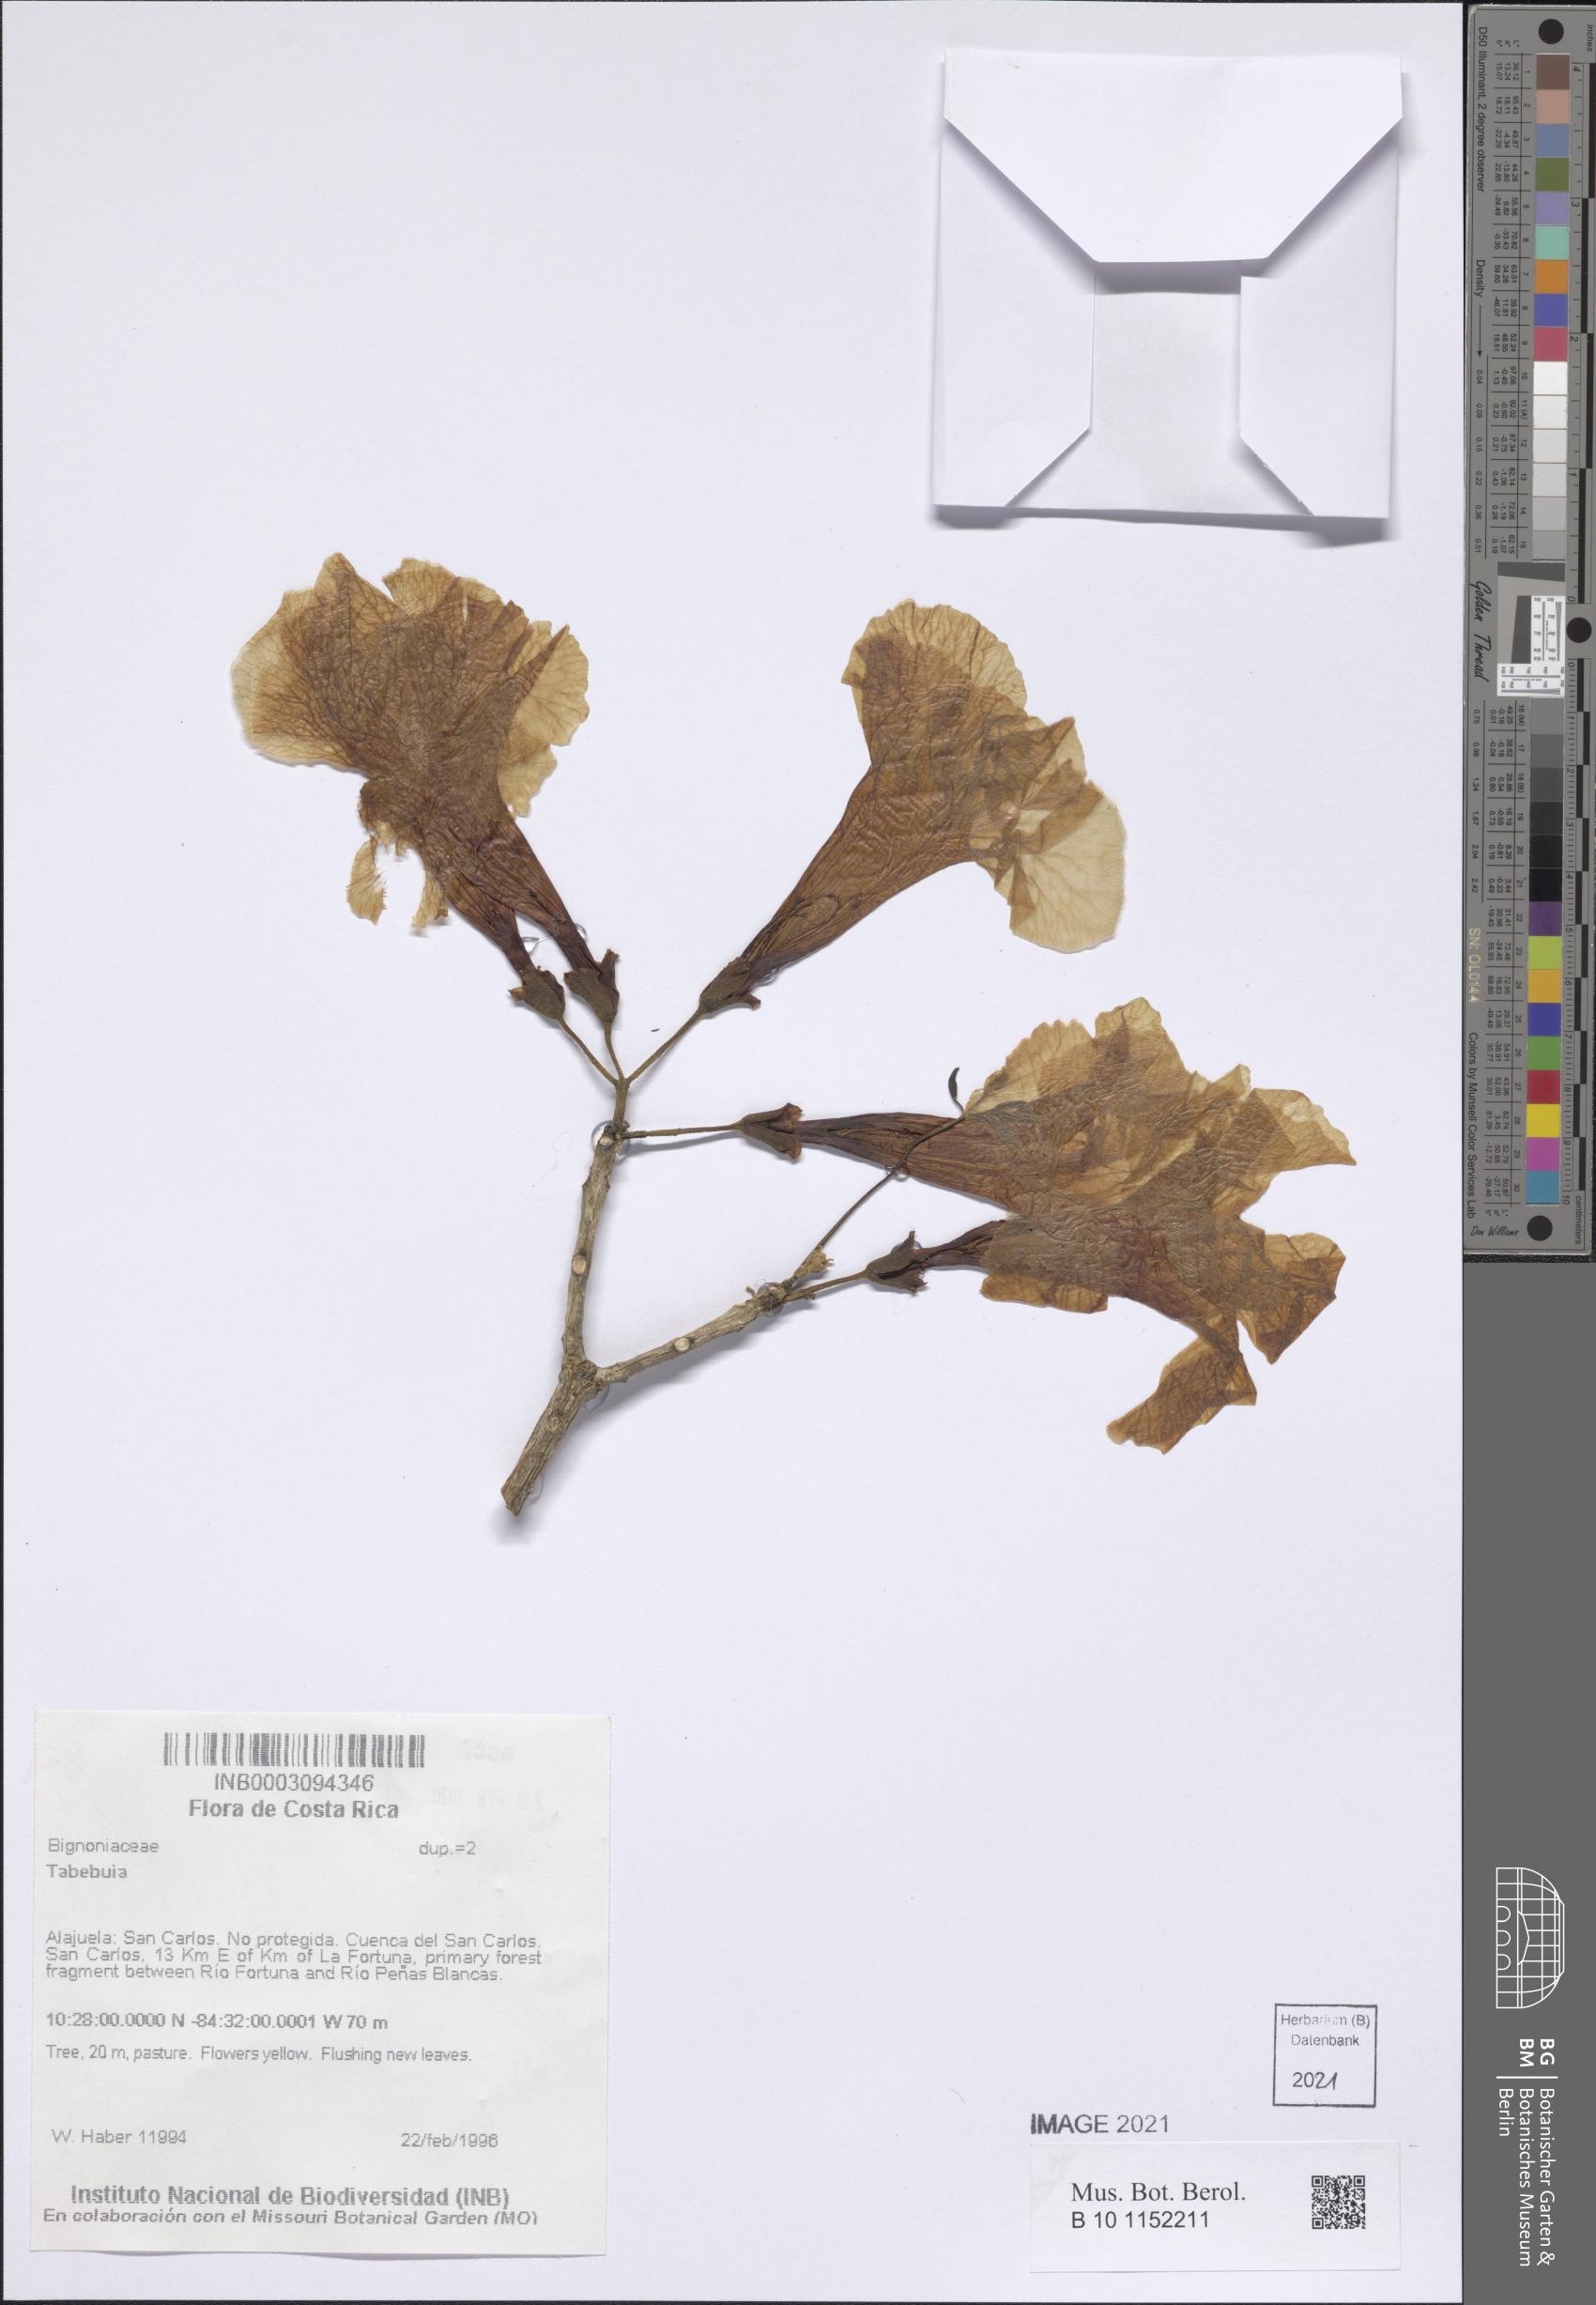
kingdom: Plantae
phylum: Tracheophyta
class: Magnoliopsida
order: Lamiales
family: Bignoniaceae
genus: Tabebuia
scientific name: Tabebuia
